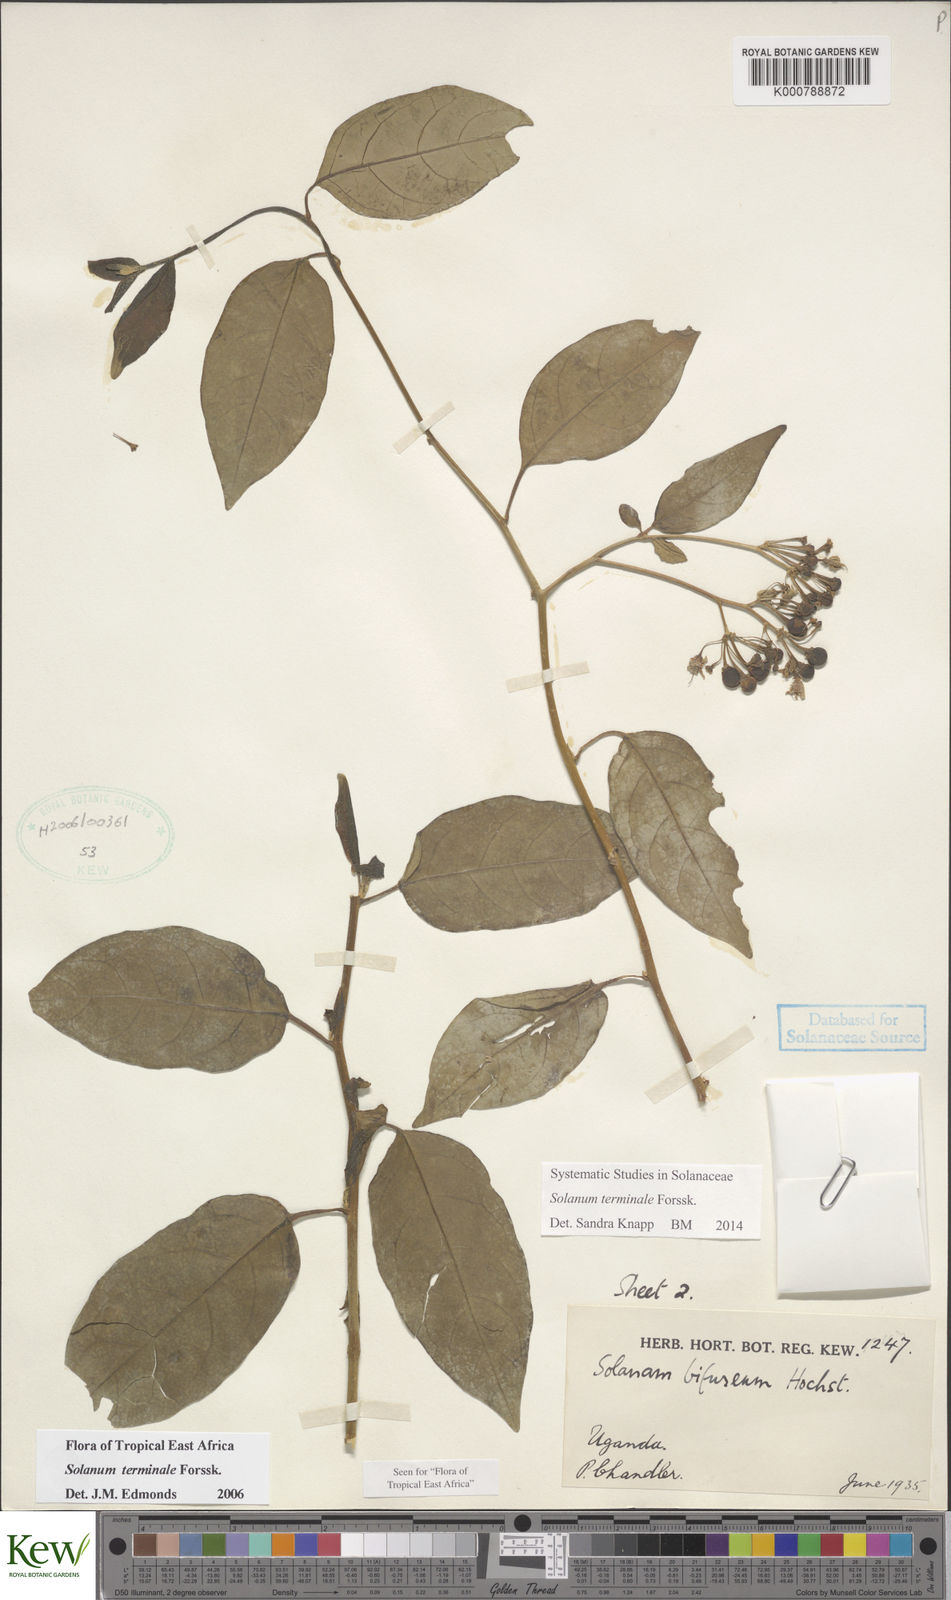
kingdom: Plantae
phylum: Tracheophyta
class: Magnoliopsida
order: Solanales
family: Solanaceae
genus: Solanum
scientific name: Solanum terminale
